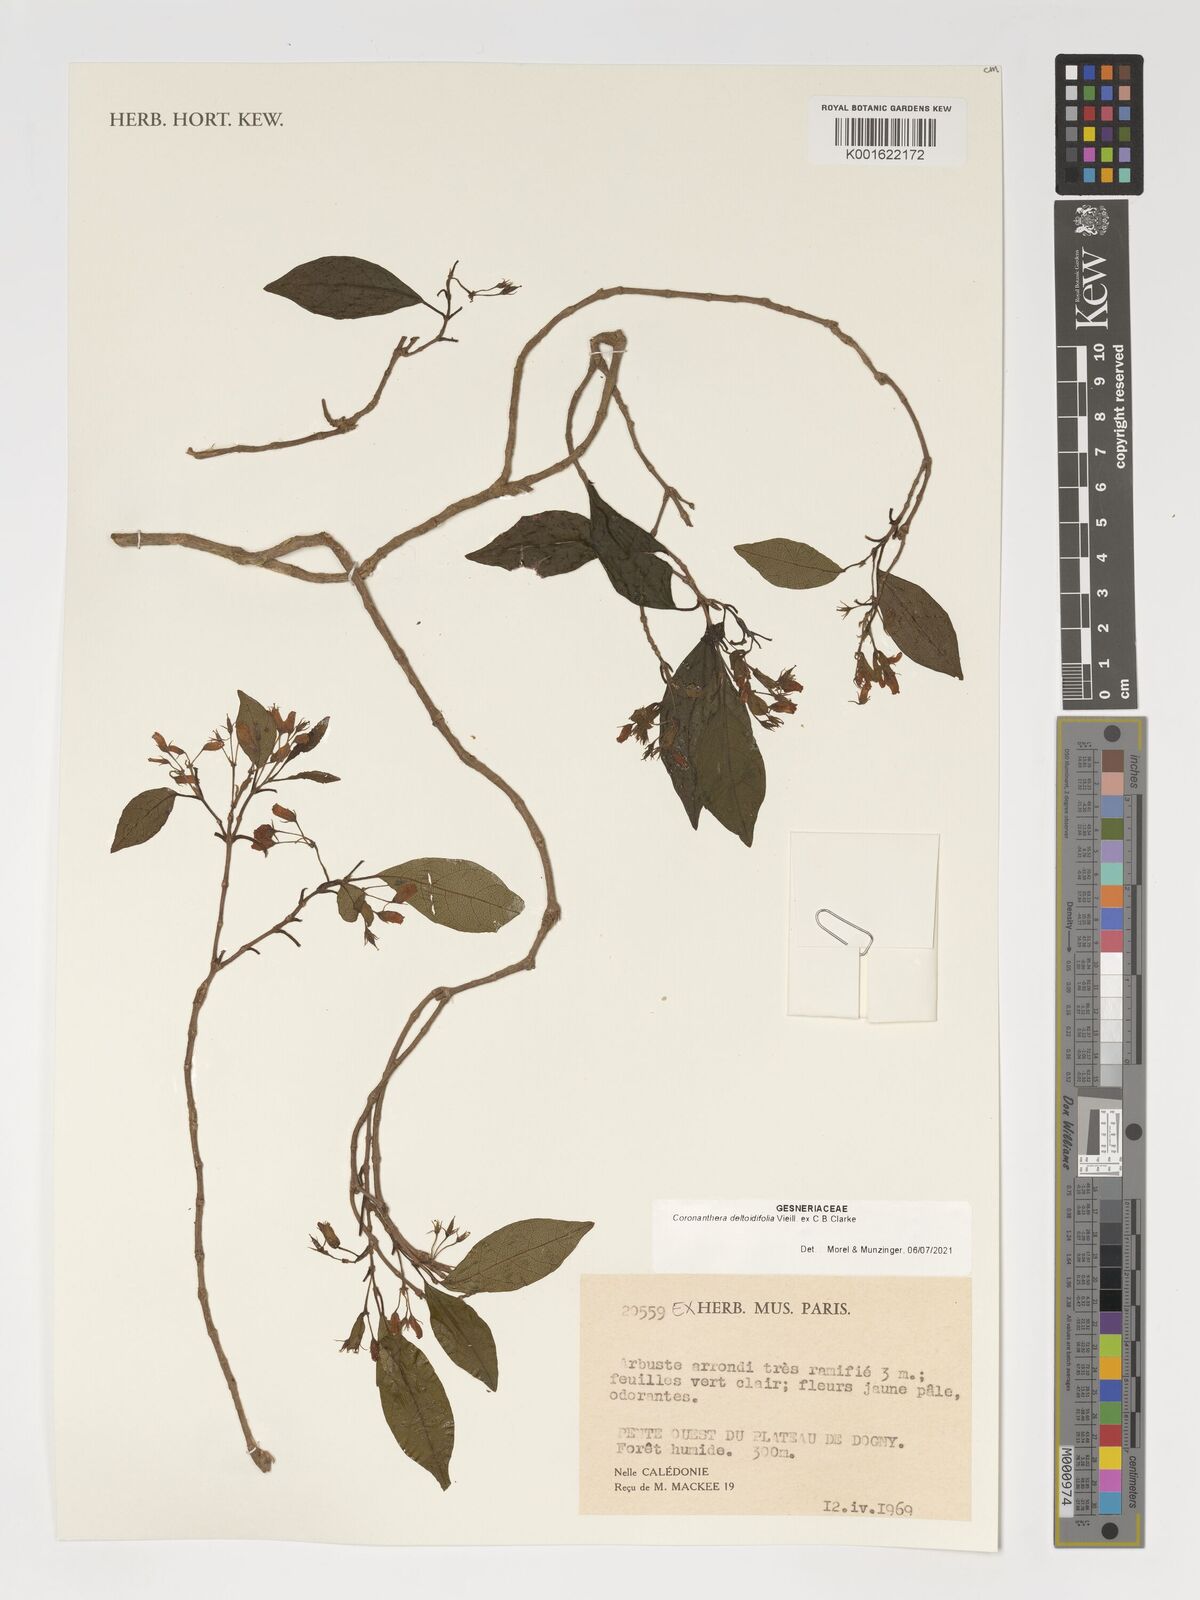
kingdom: Plantae
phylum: Tracheophyta
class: Magnoliopsida
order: Lamiales
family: Gesneriaceae
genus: Coronanthera
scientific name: Coronanthera deltoidifolia
